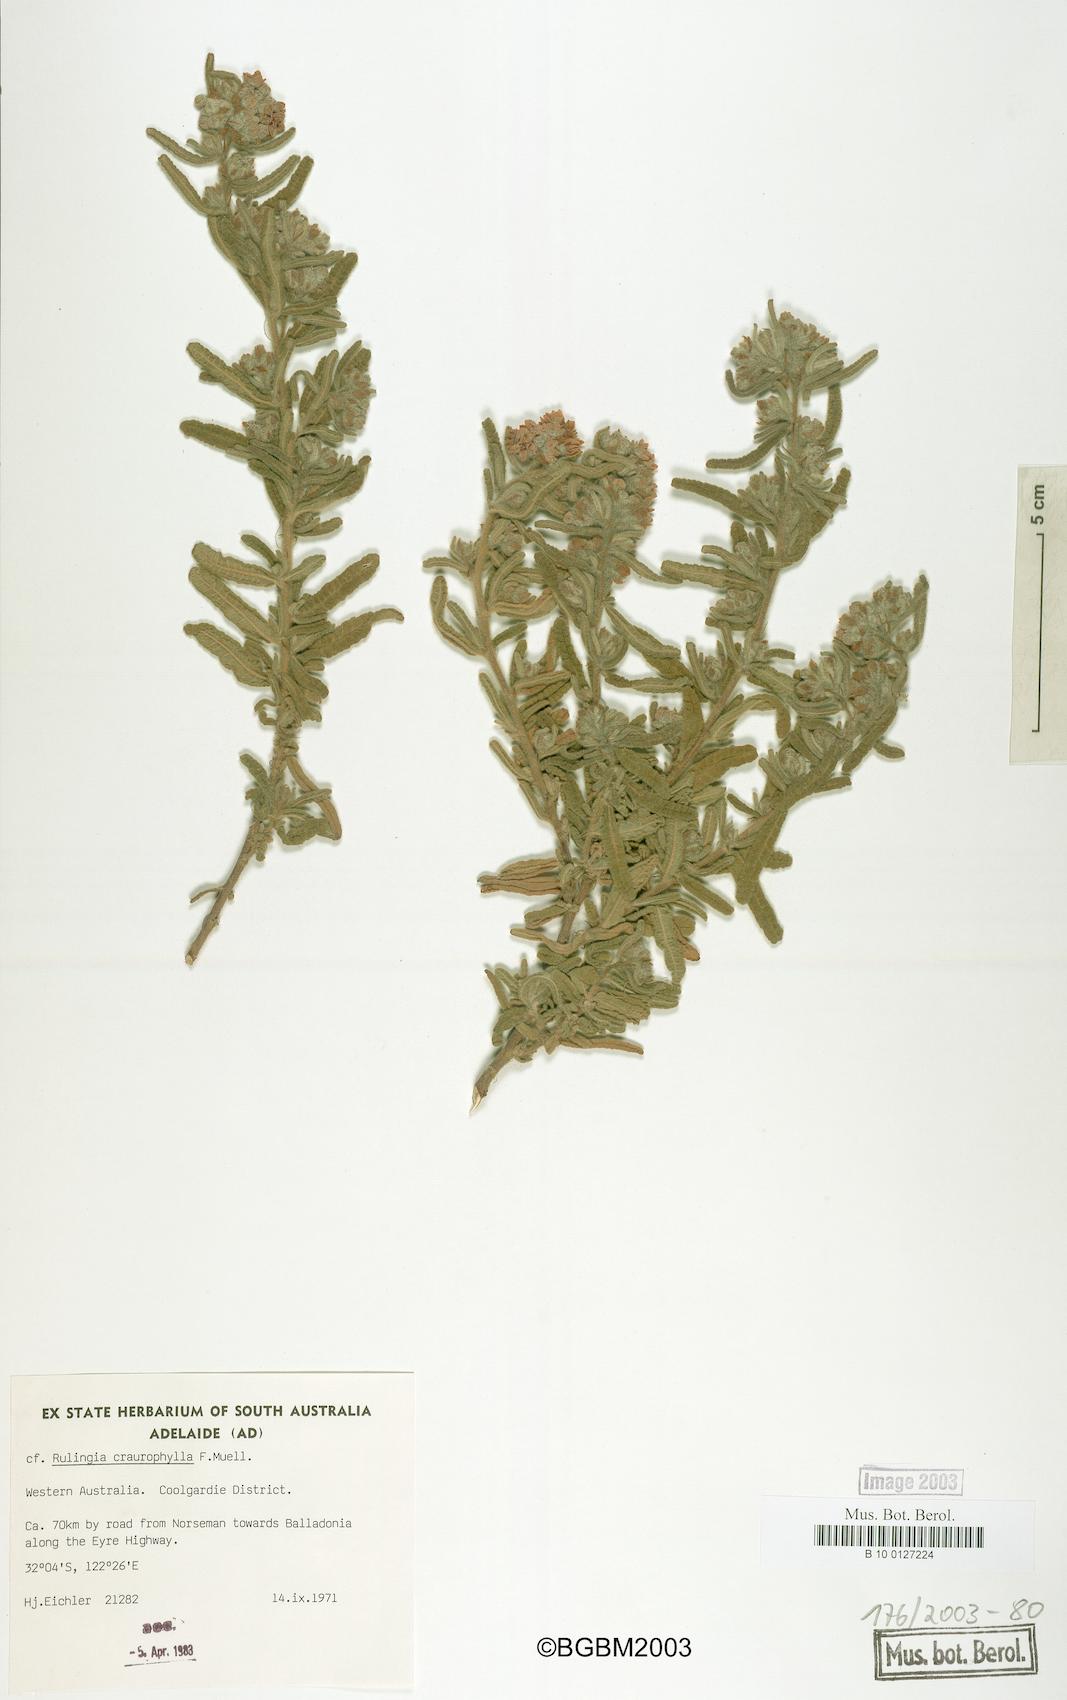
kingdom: Plantae
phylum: Tracheophyta
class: Magnoliopsida
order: Malvales
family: Malvaceae
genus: Commersonia
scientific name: Commersonia craurophylla
